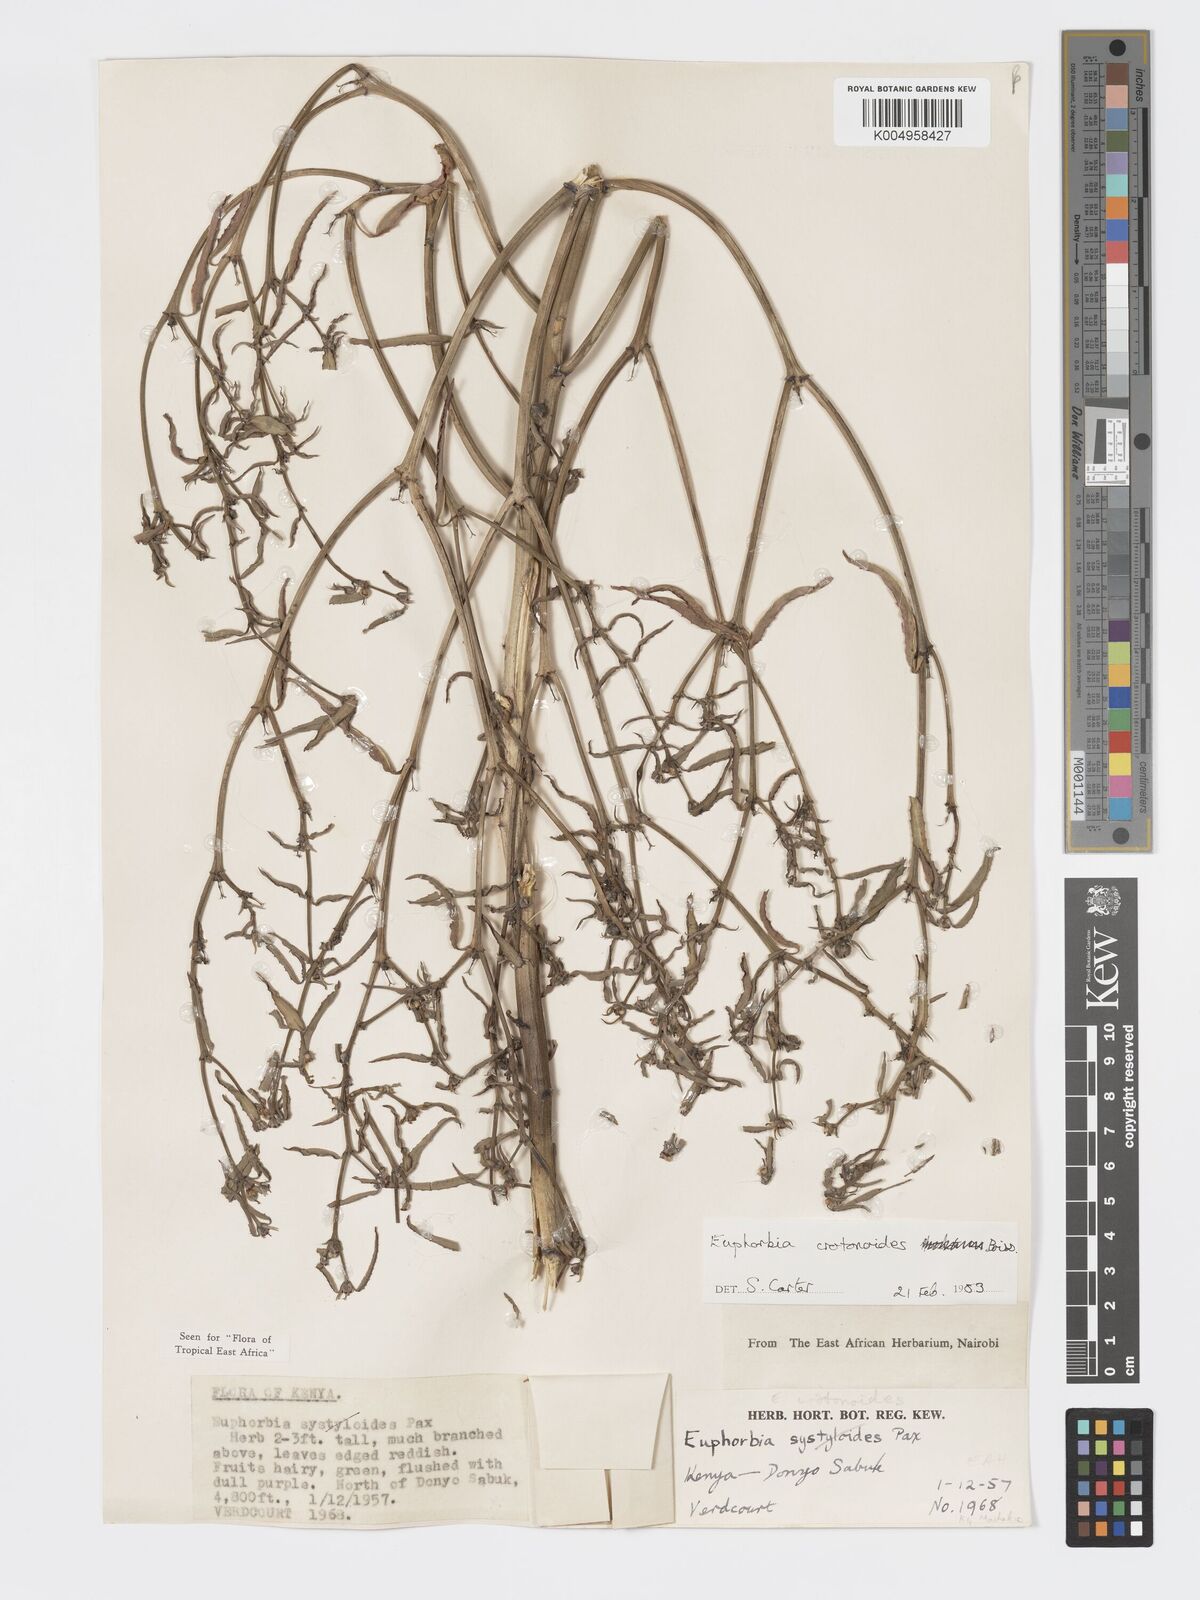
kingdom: Plantae
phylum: Tracheophyta
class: Magnoliopsida
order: Malpighiales
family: Euphorbiaceae
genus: Euphorbia
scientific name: Euphorbia crotonoides
